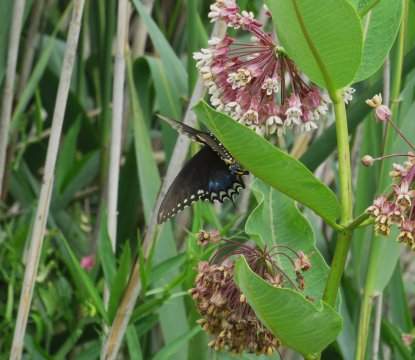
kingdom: Animalia
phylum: Arthropoda
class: Insecta
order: Lepidoptera
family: Papilionidae
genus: Pterourus
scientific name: Pterourus troilus
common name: Spicebush Swallowtail
